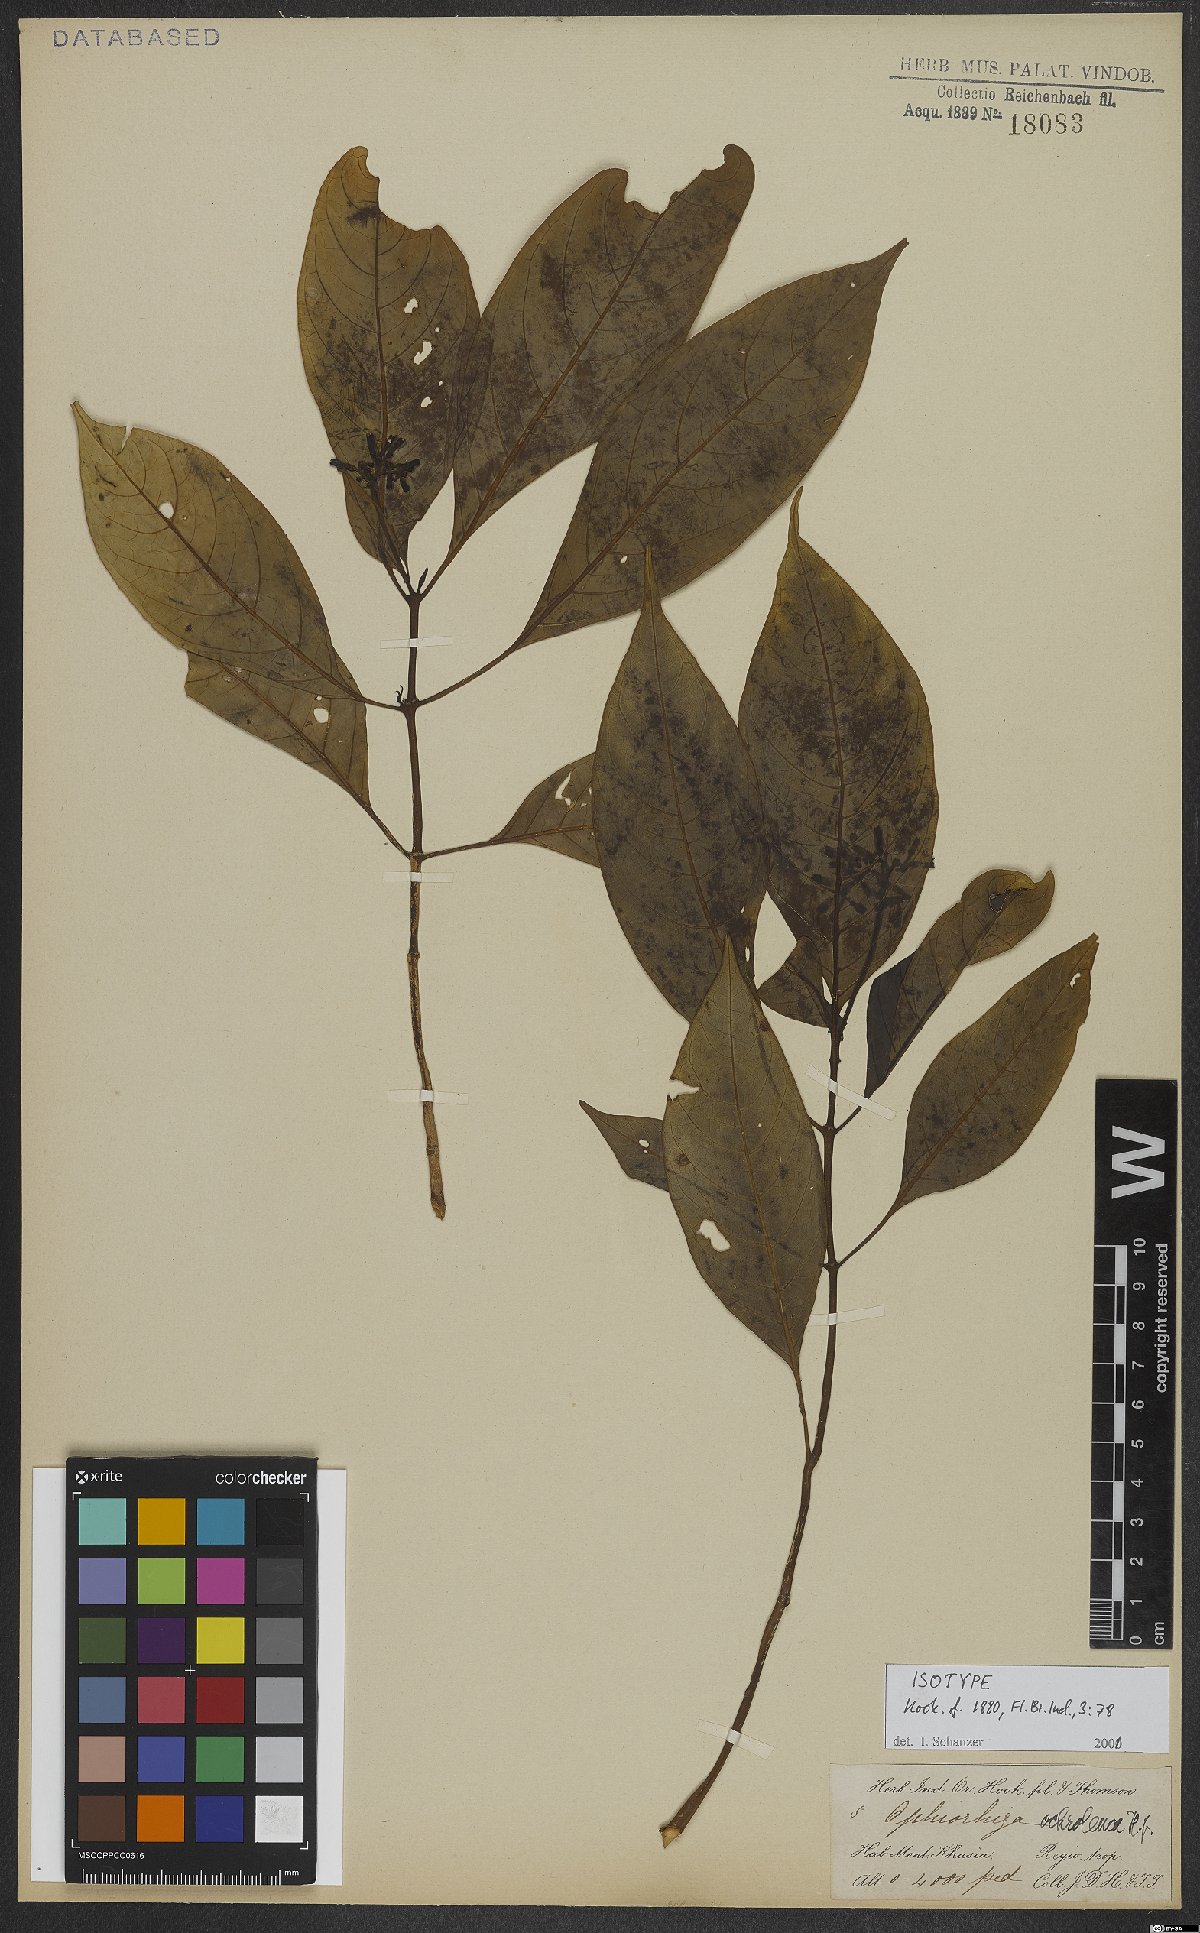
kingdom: Plantae
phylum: Tracheophyta
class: Magnoliopsida
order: Gentianales
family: Rubiaceae
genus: Ophiorrhiza
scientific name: Ophiorrhiza ochroleuca
